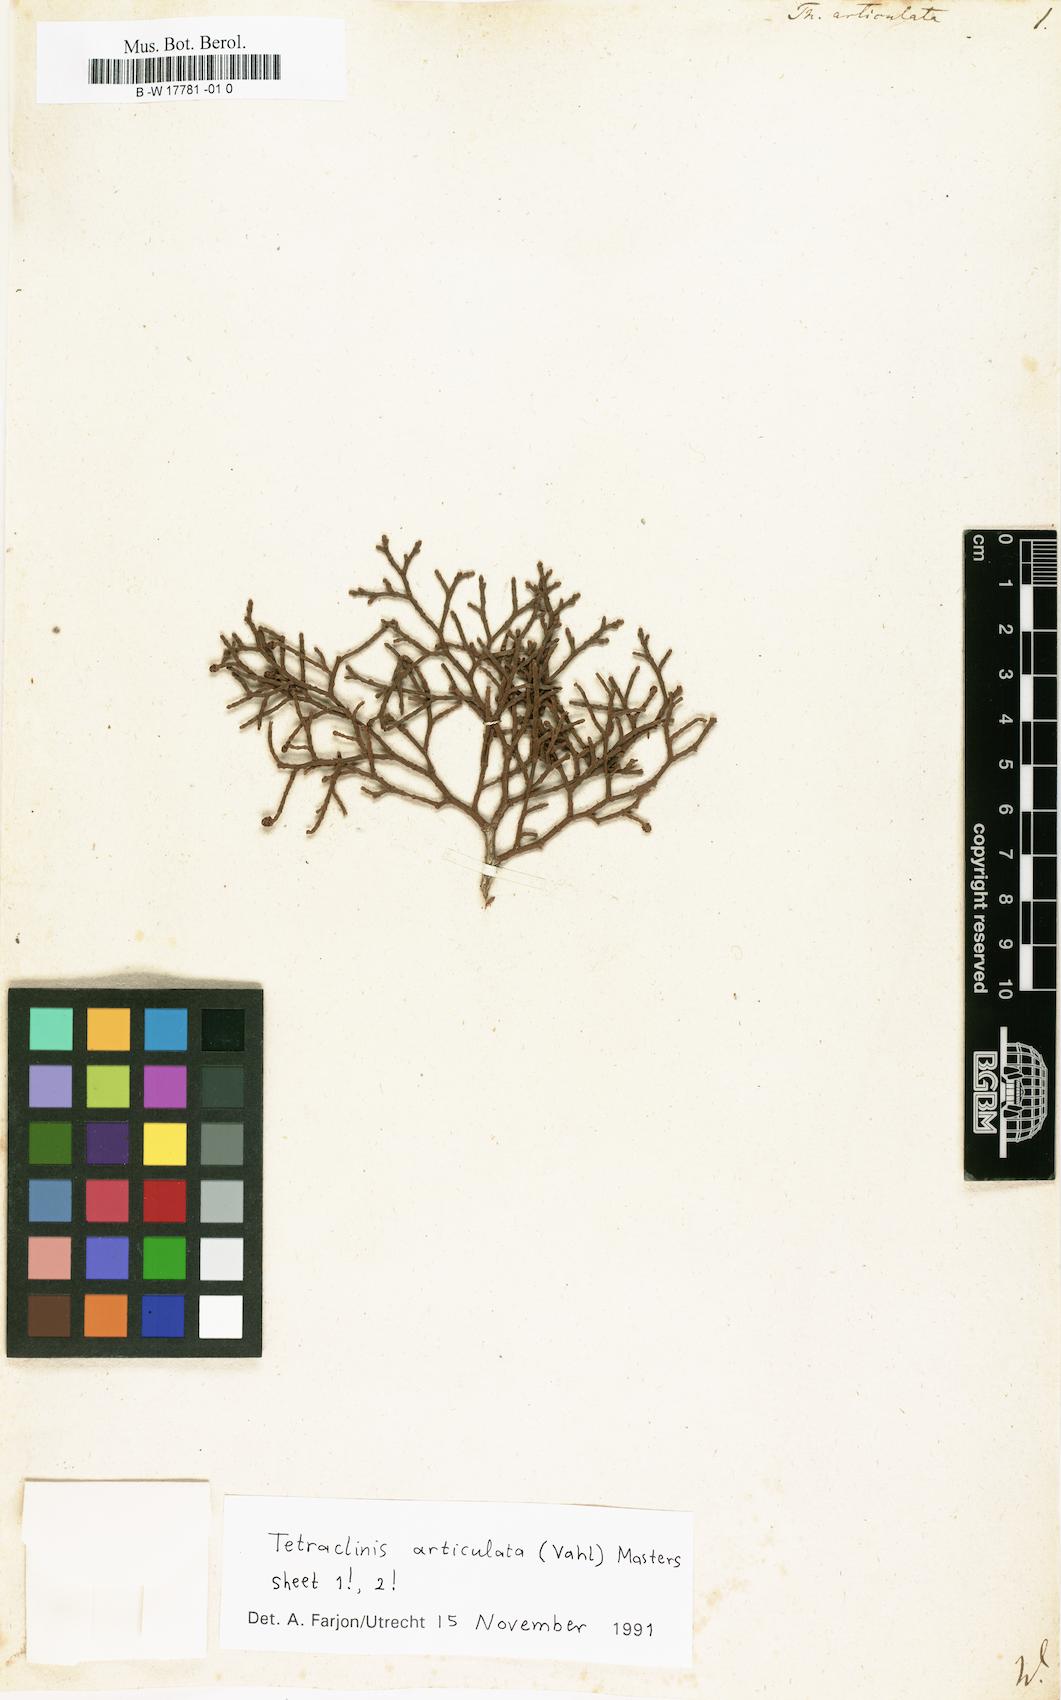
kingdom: Plantae
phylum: Tracheophyta
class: Pinopsida
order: Pinales
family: Cupressaceae
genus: Tetraclinis
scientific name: Tetraclinis articulata
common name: Sandarac
